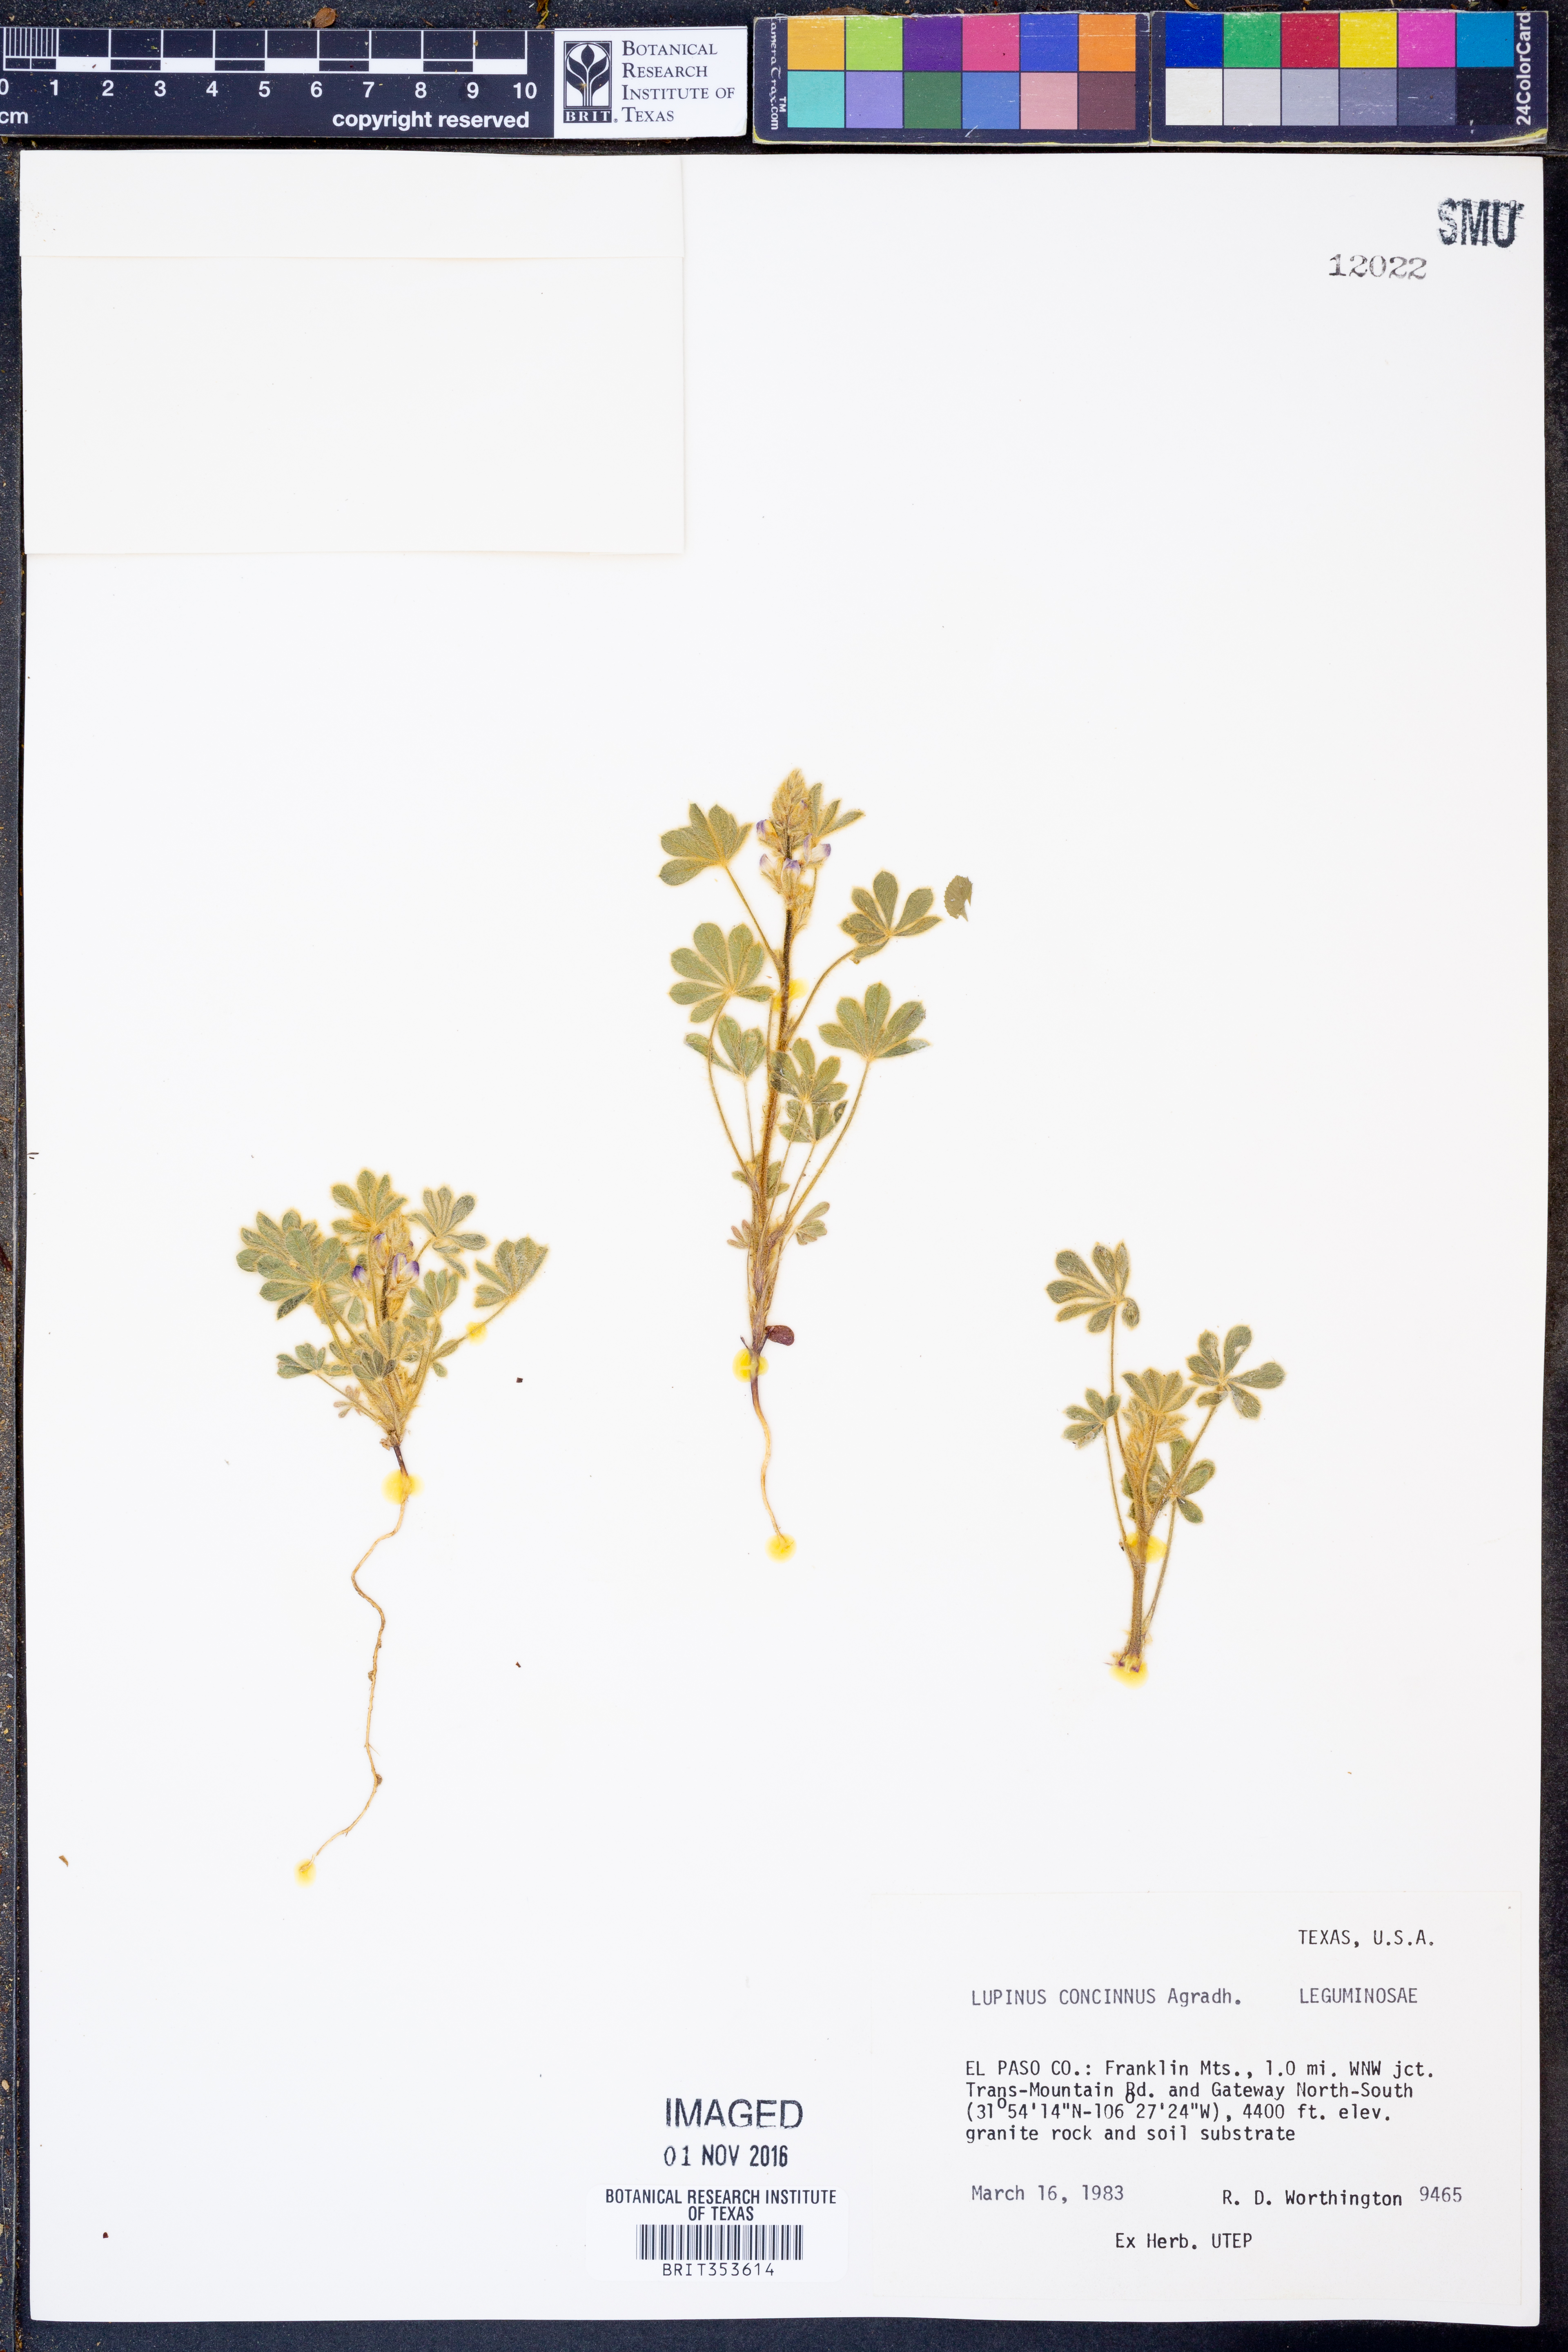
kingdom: Plantae
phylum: Tracheophyta
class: Magnoliopsida
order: Fabales
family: Fabaceae
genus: Lupinus
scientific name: Lupinus concinnus
